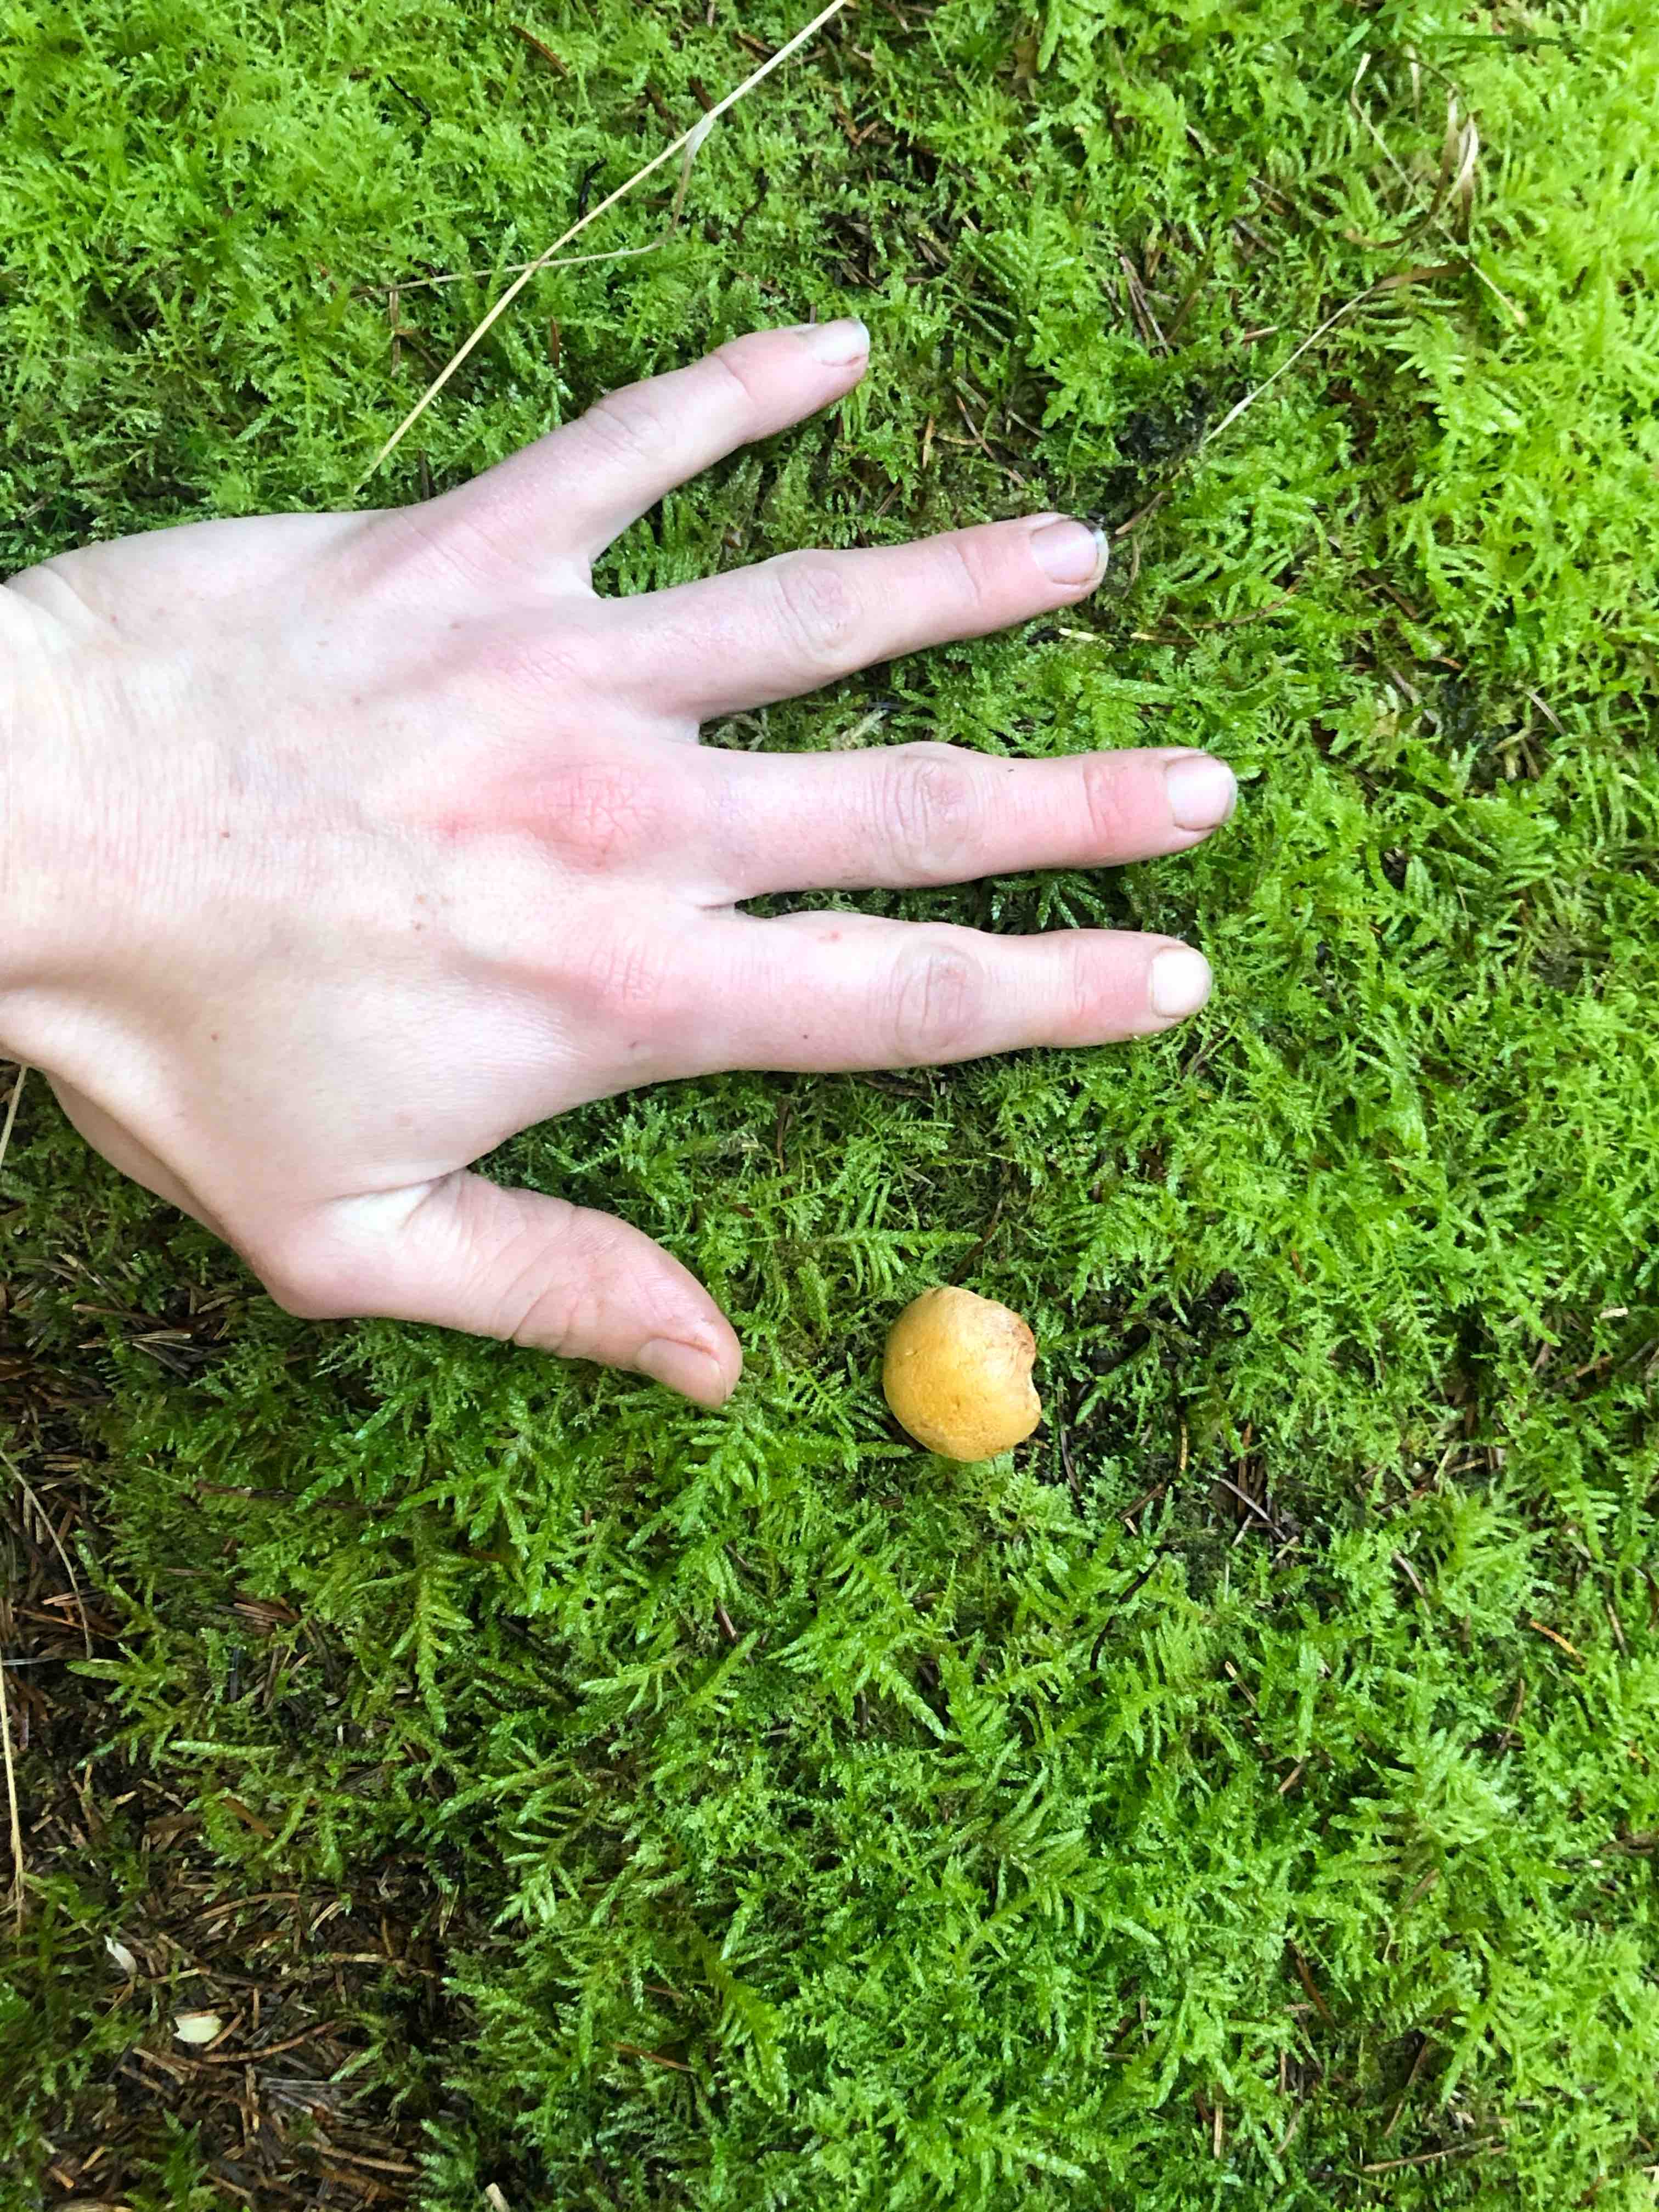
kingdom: Fungi
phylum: Basidiomycota
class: Agaricomycetes
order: Boletales
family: Suillaceae
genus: Suillus
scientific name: Suillus bovinus
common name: grovporet slimrørhat
